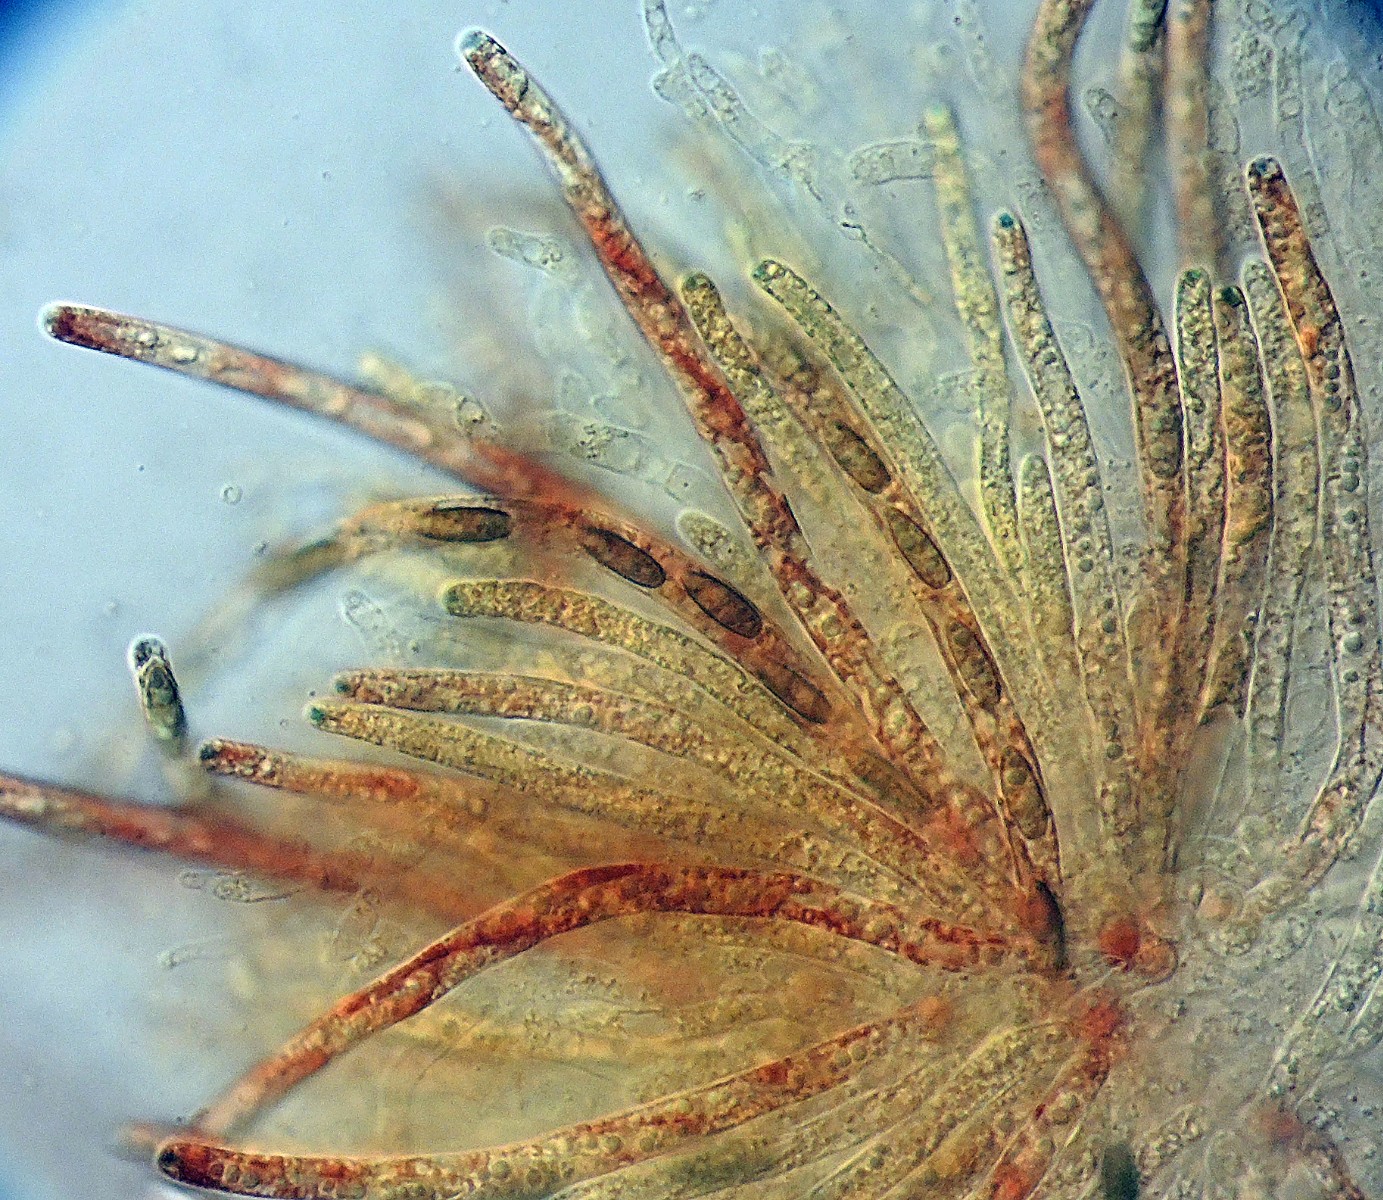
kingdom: Fungi
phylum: Ascomycota
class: Sordariomycetes
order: Xylariales
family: Xylariaceae
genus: Anthostomella
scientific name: Anthostomella scotina
